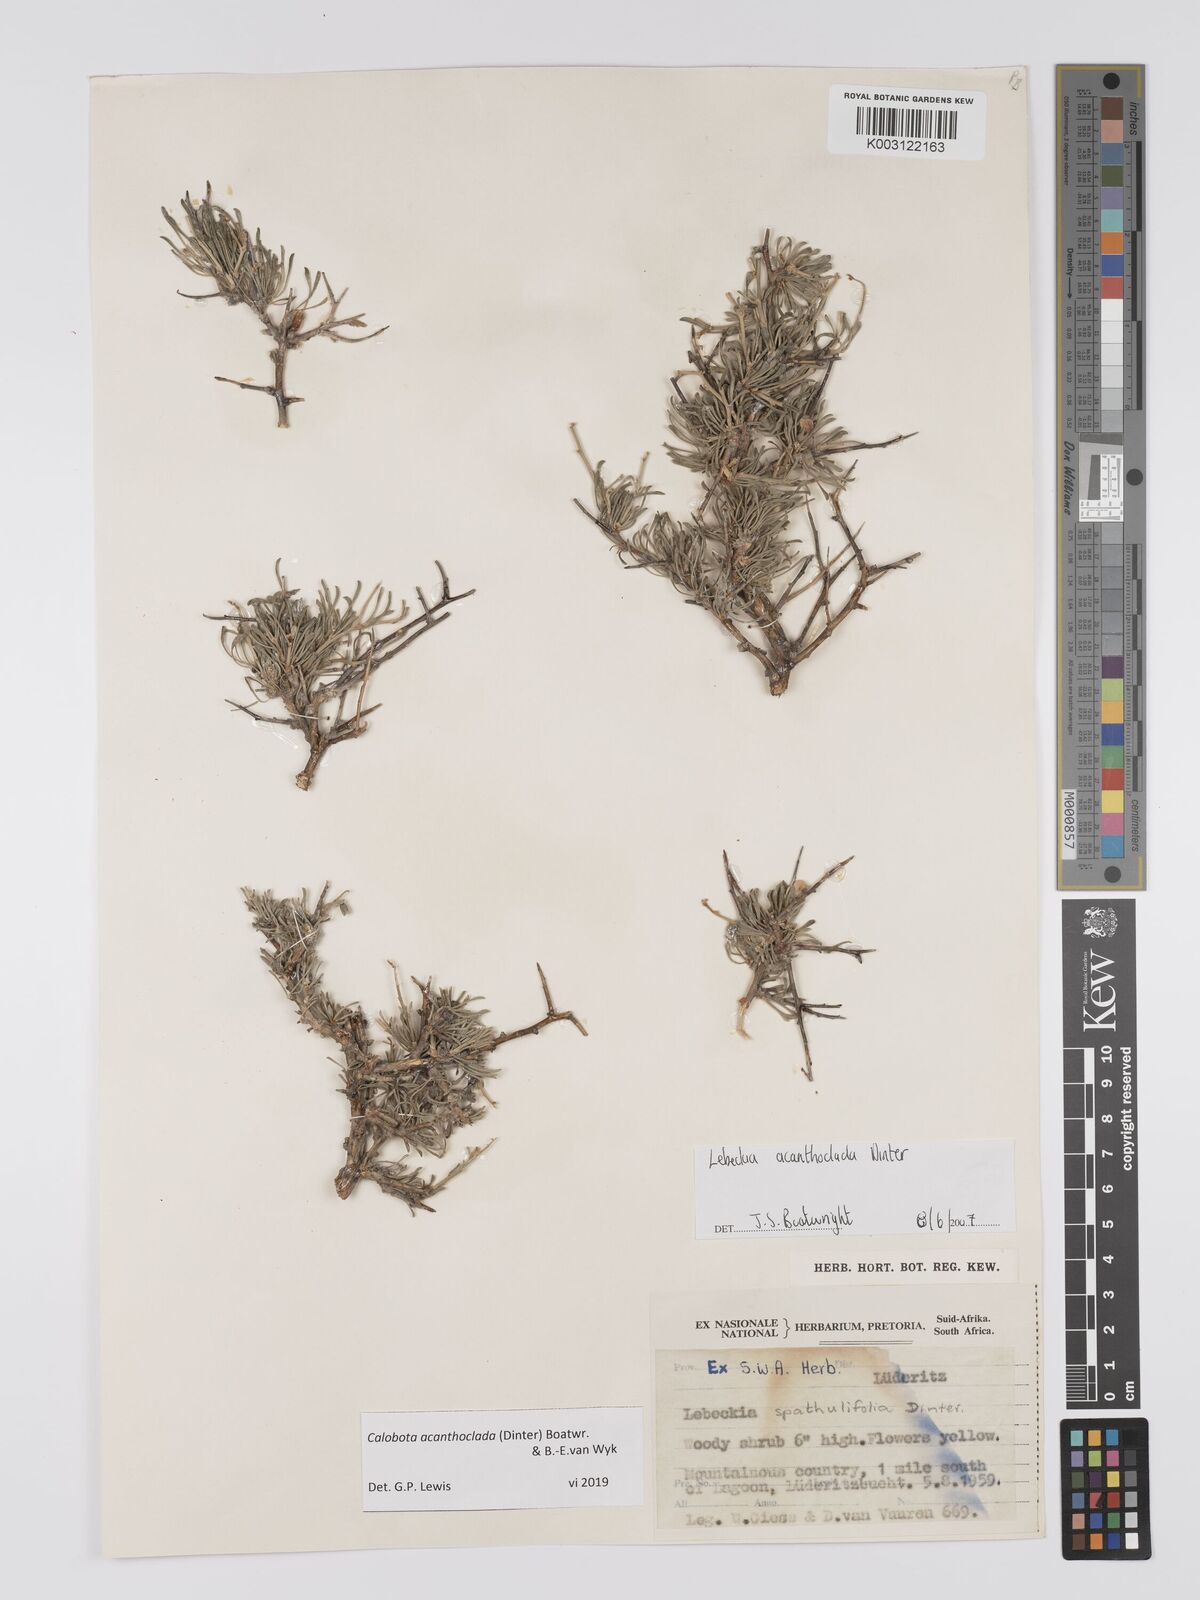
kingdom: Plantae
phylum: Tracheophyta
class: Magnoliopsida
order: Fabales
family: Fabaceae
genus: Calobota
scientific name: Calobota acanthoclada
